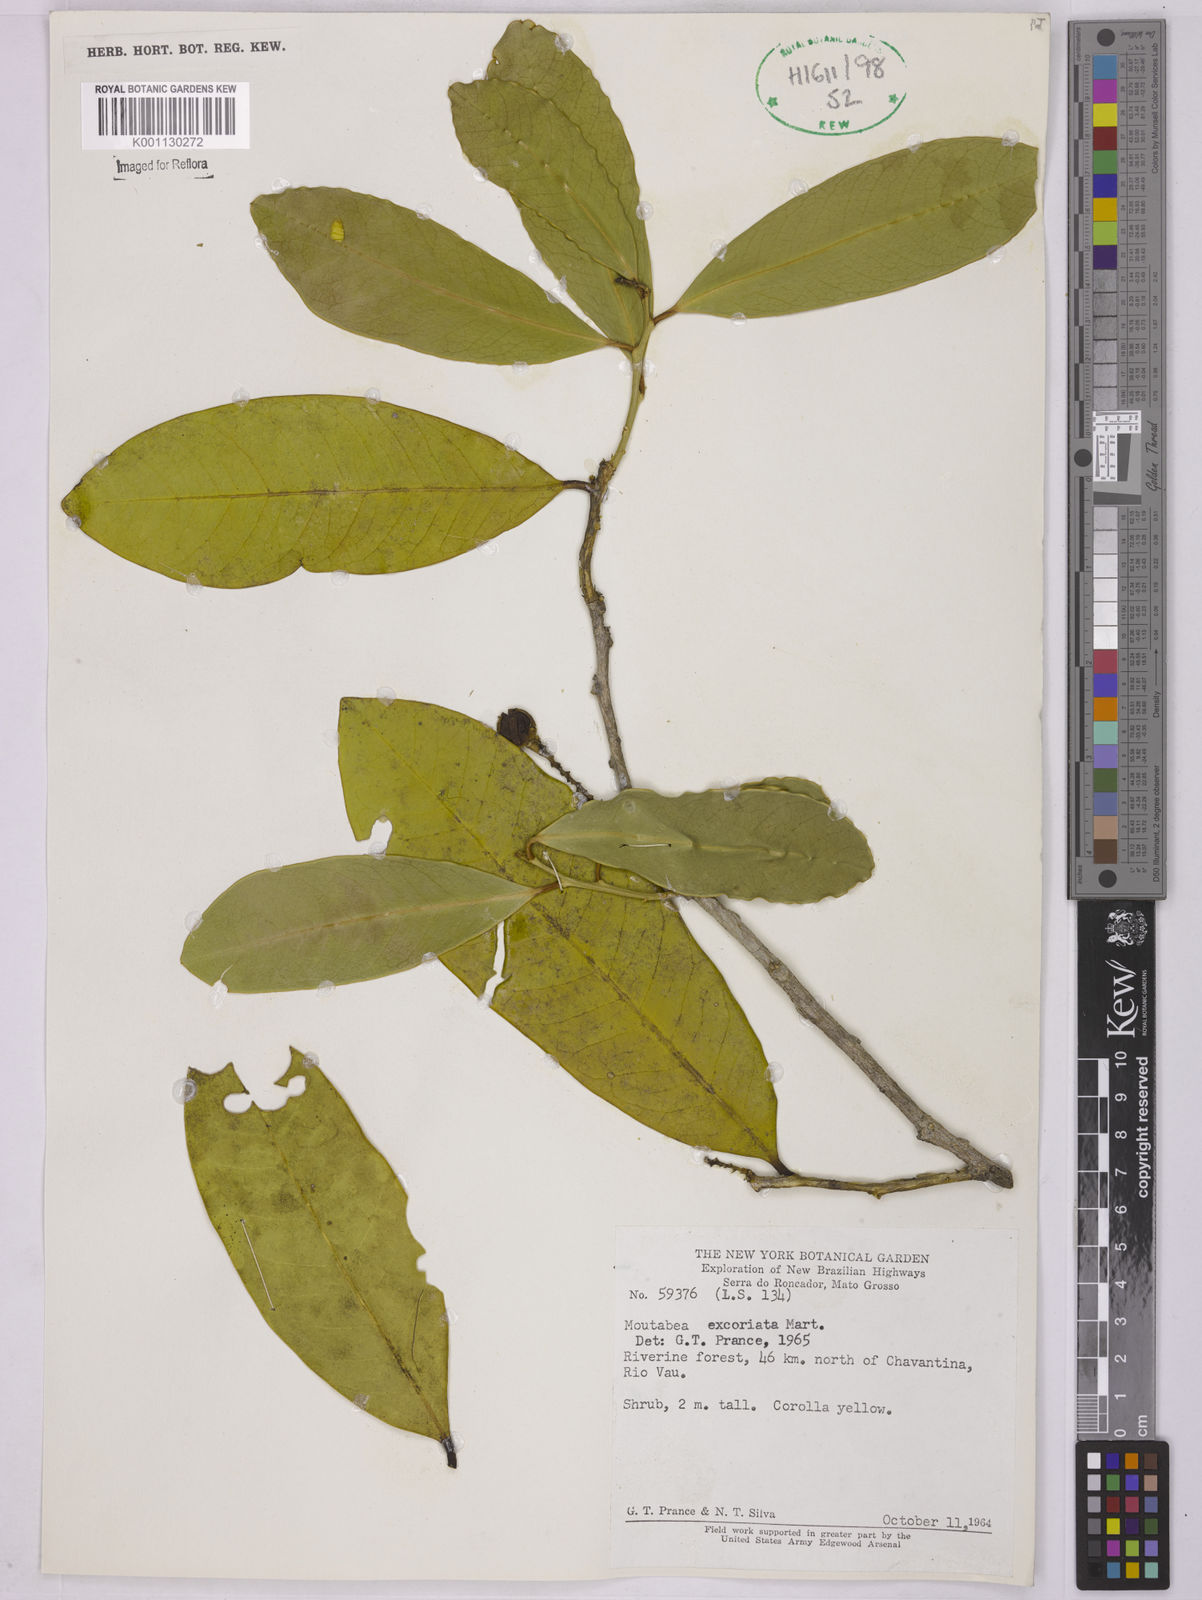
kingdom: Plantae
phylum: Tracheophyta
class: Magnoliopsida
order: Fabales
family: Polygalaceae
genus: Moutabea
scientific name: Moutabea excoriata
